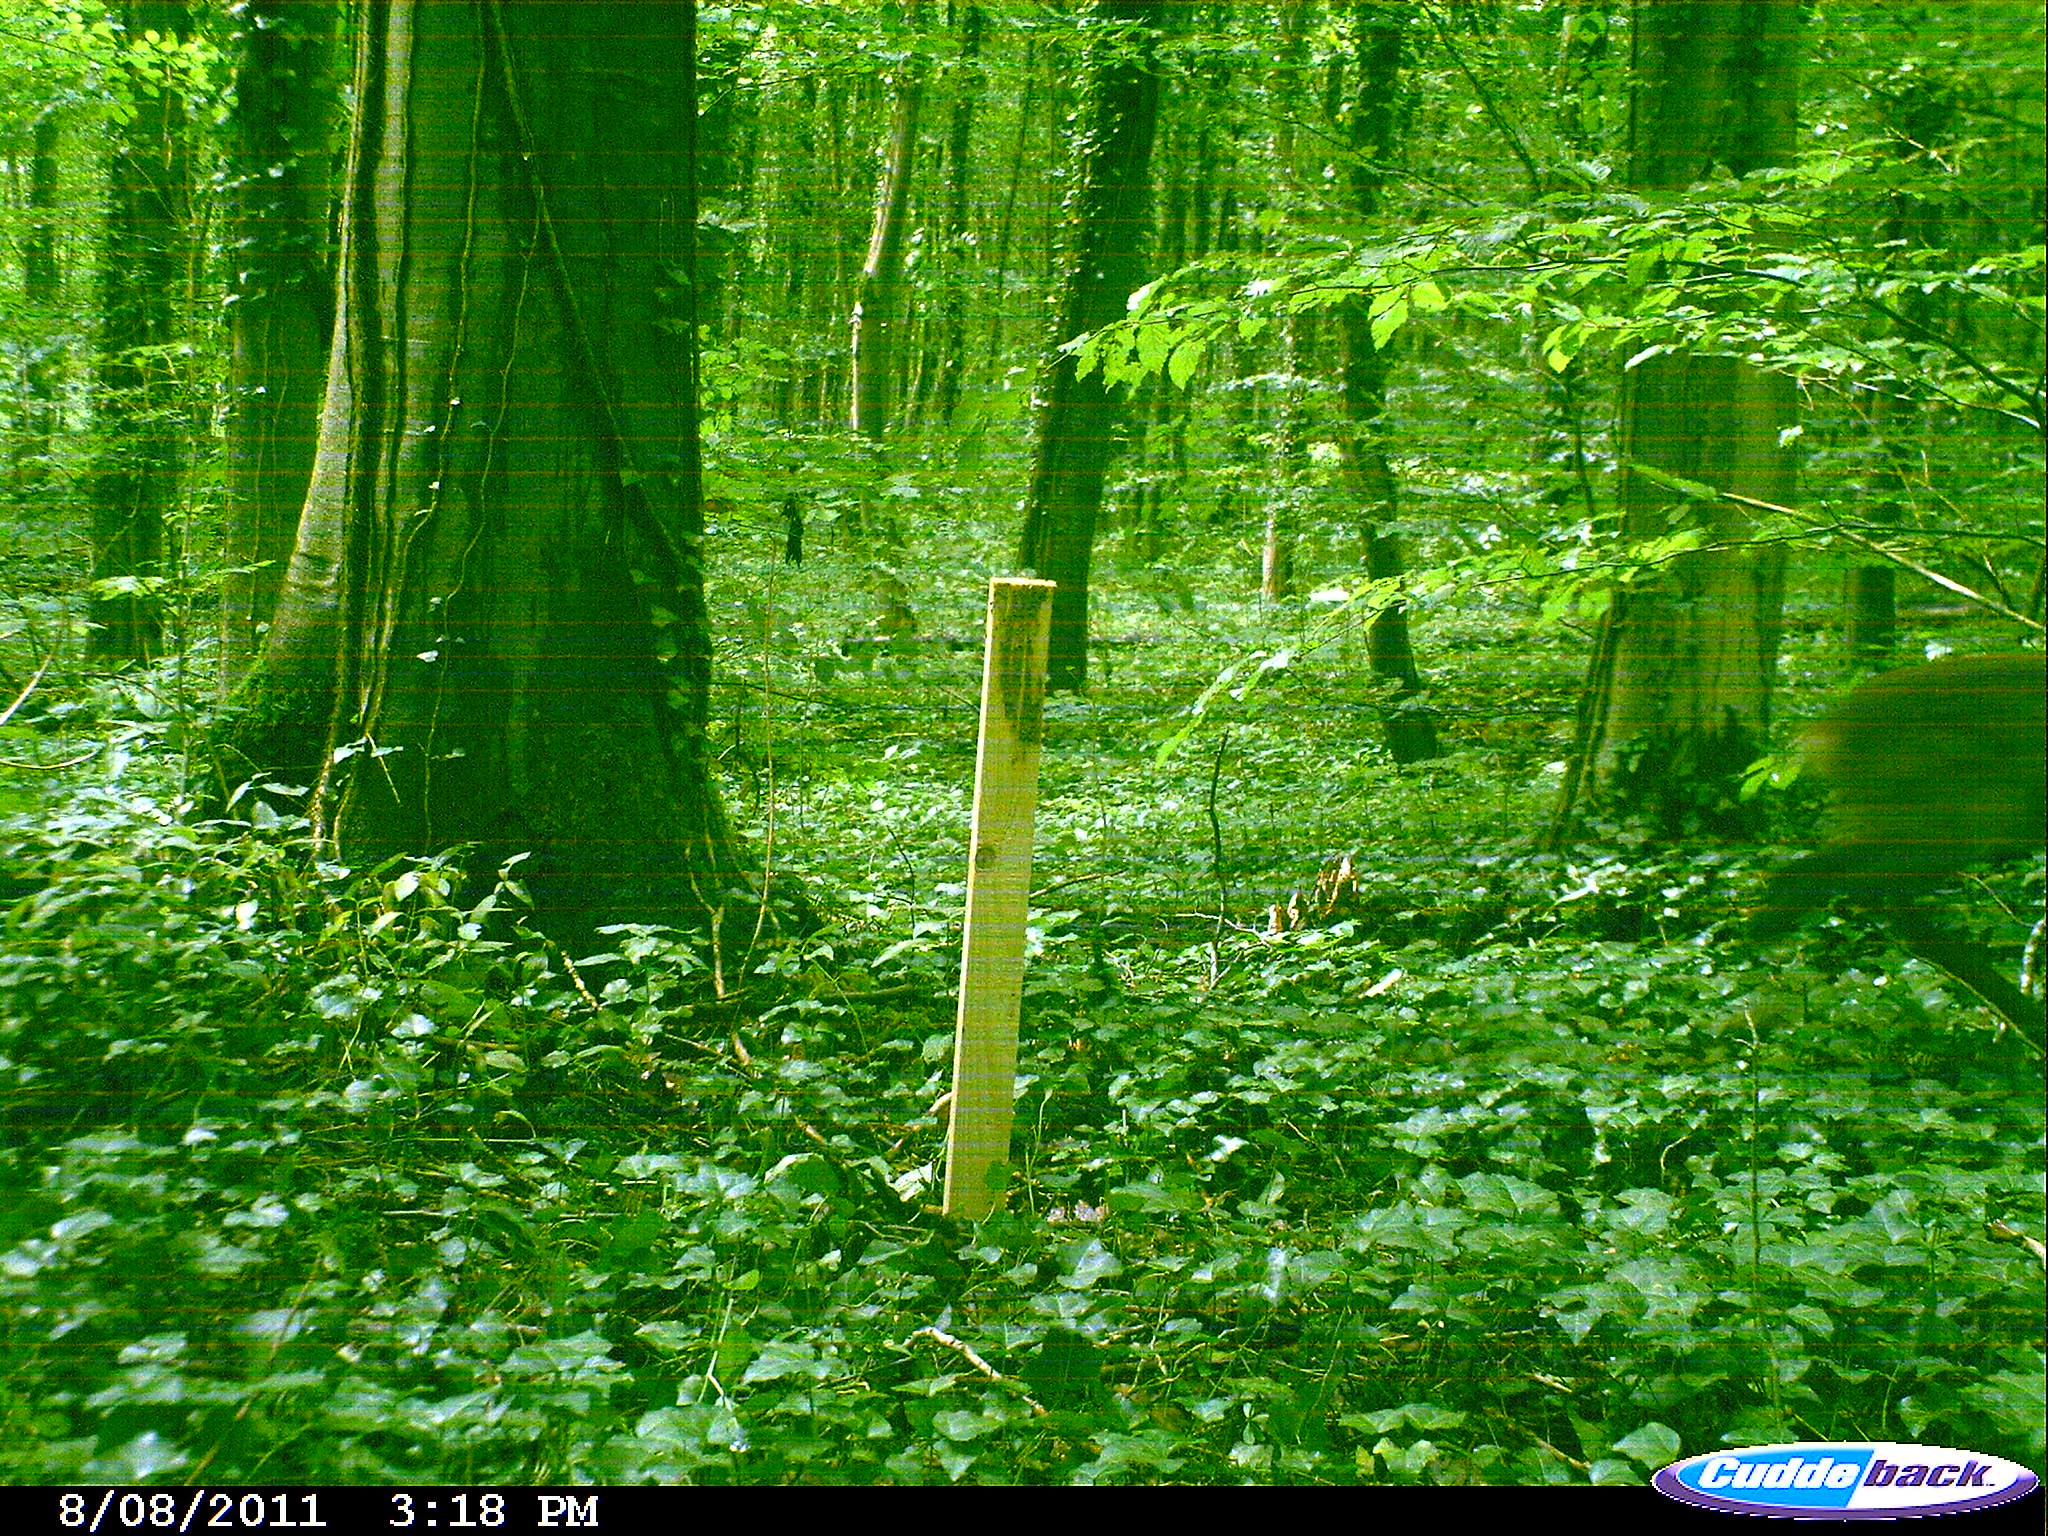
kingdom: Animalia
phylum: Chordata
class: Mammalia
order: Artiodactyla
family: Cervidae
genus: Capreolus
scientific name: Capreolus capreolus
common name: Western roe deer
